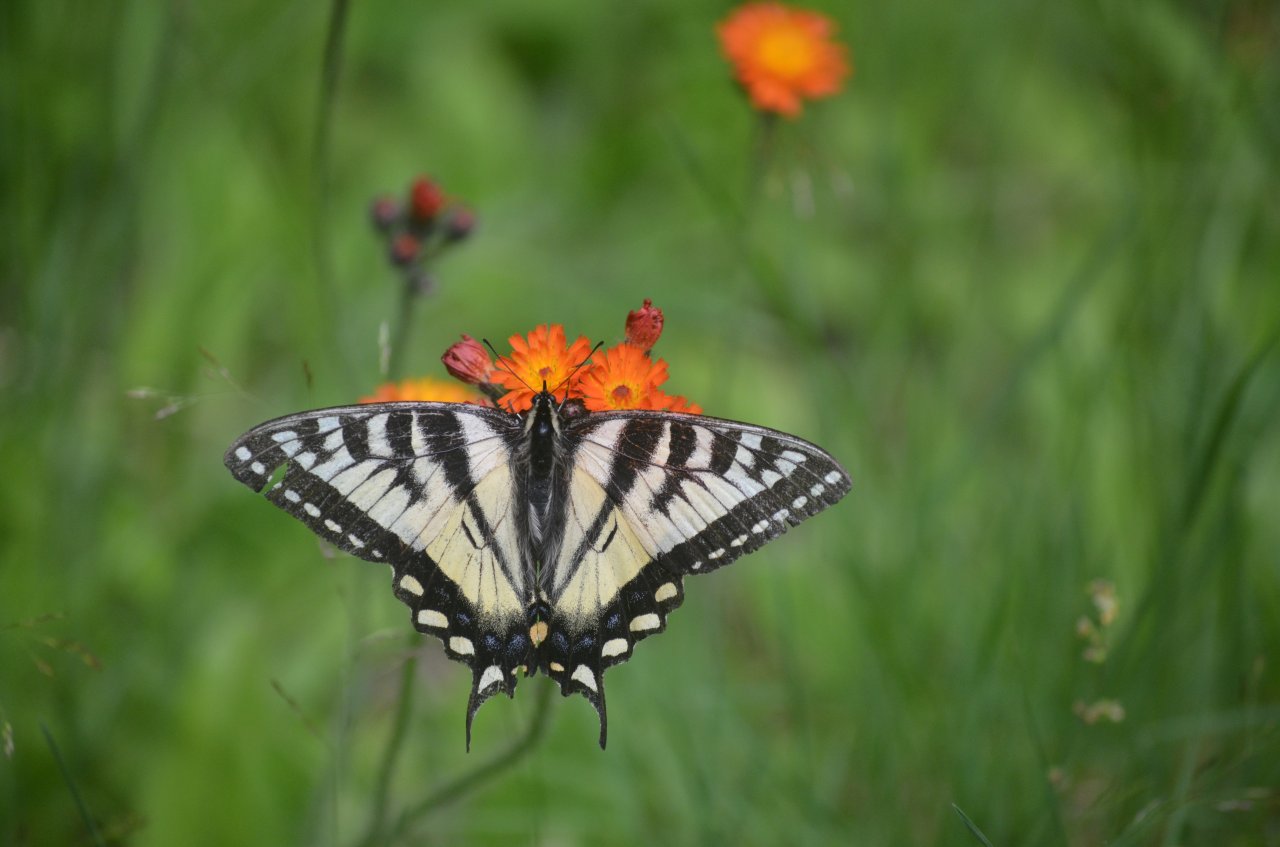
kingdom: Animalia
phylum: Arthropoda
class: Insecta
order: Lepidoptera
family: Papilionidae
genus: Pterourus
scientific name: Pterourus canadensis
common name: Canadian Tiger Swallowtail
